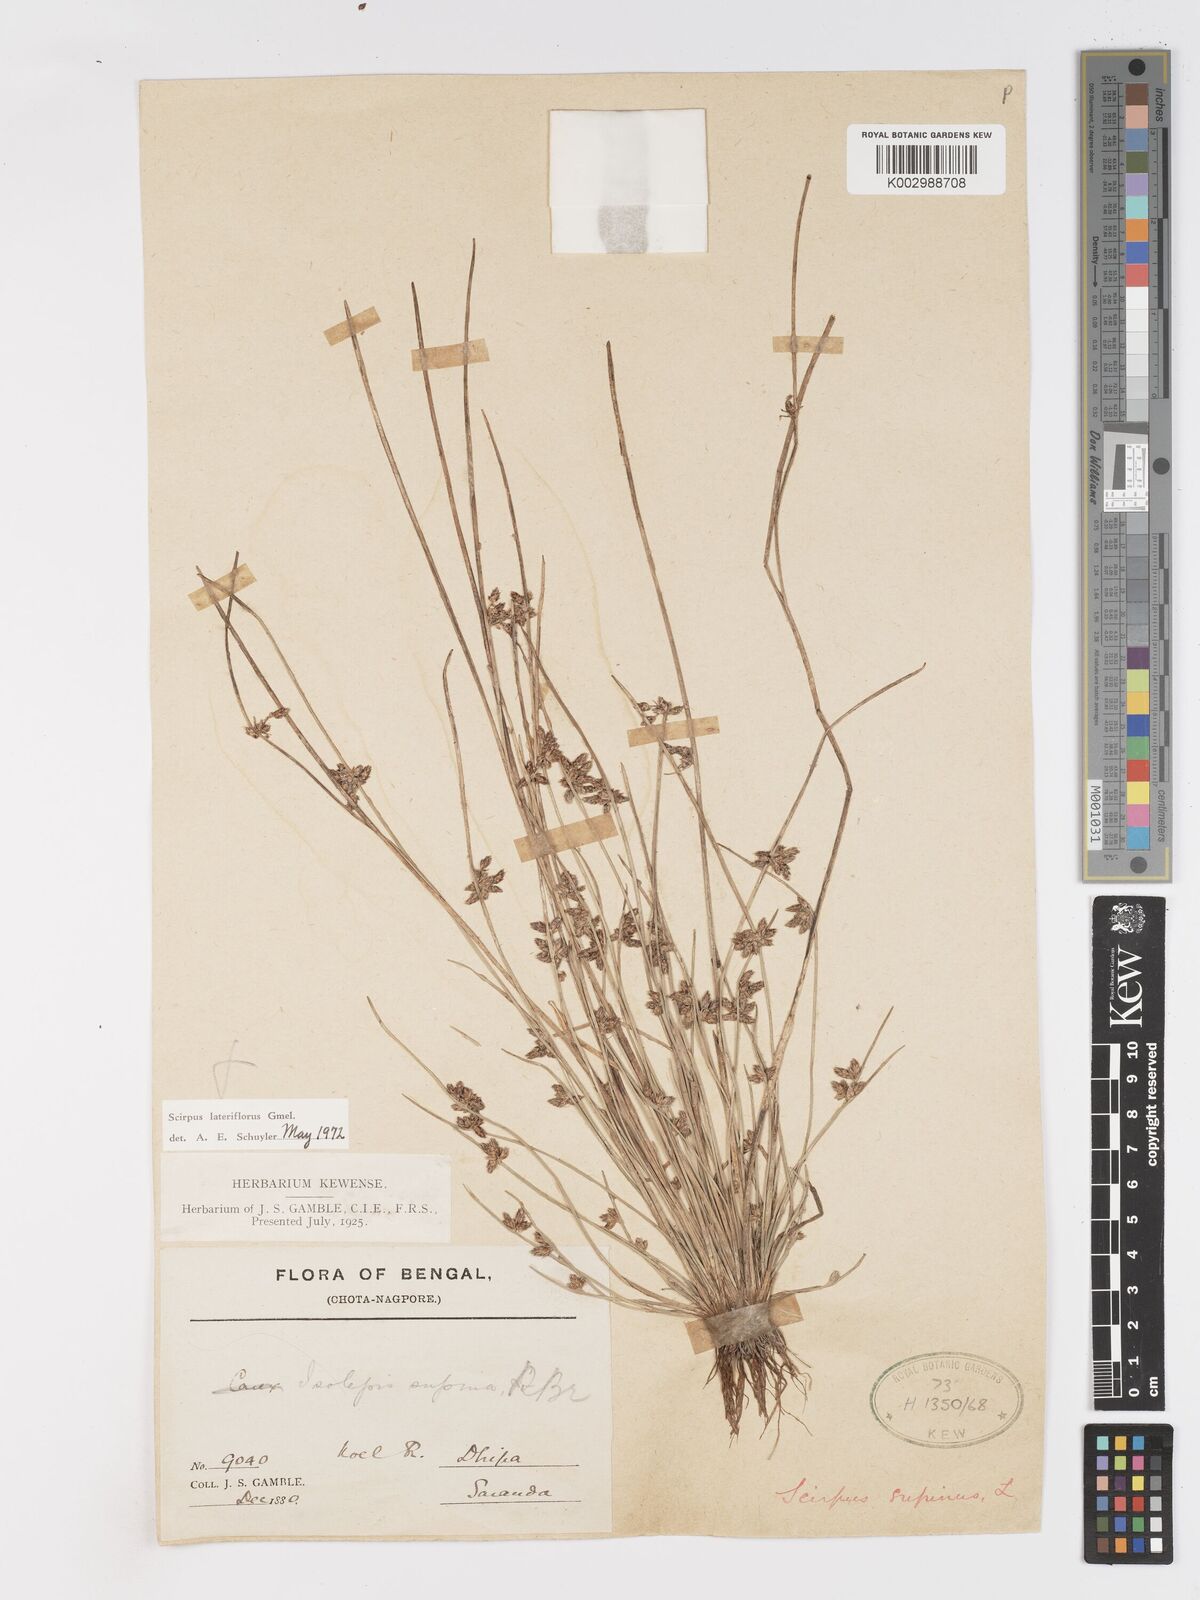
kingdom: Plantae
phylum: Tracheophyta
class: Liliopsida
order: Poales
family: Cyperaceae
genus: Schoenoplectiella
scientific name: Schoenoplectiella lateriflora
